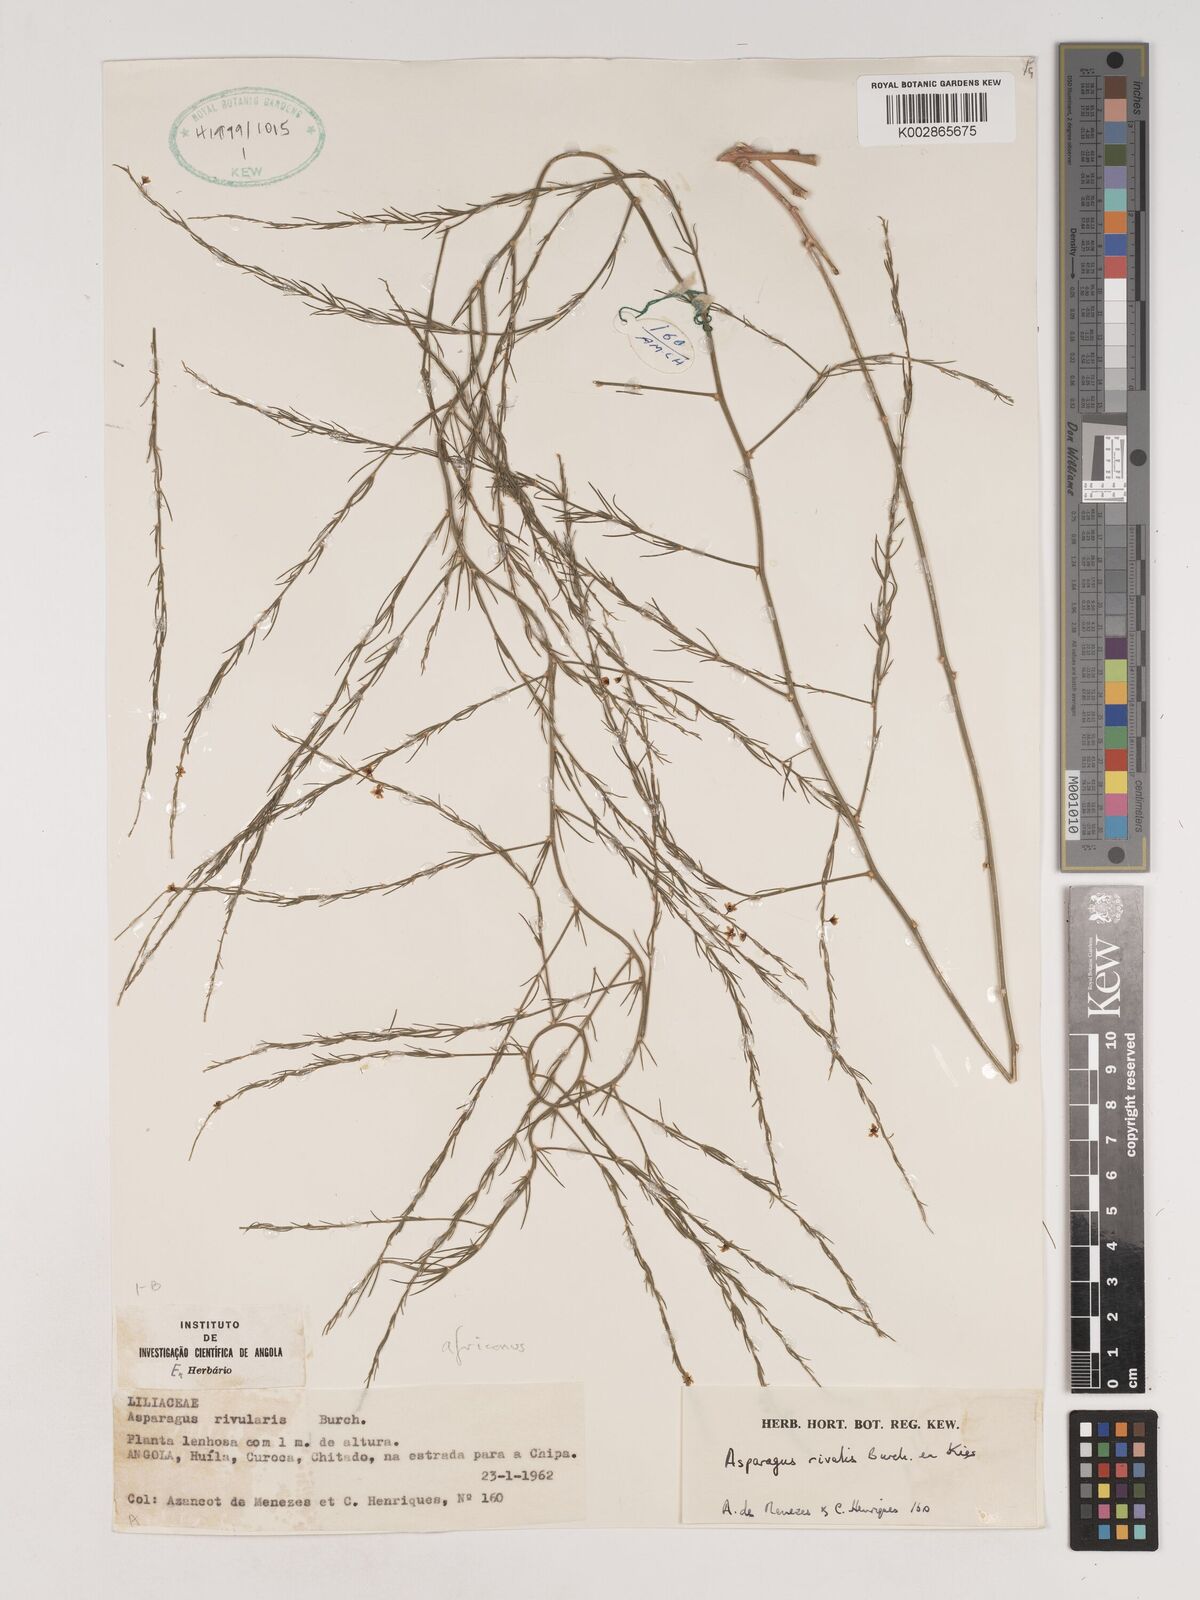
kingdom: Plantae
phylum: Tracheophyta
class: Liliopsida
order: Asparagales
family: Asparagaceae
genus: Asparagus
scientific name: Asparagus africanus
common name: Asparagus-fern
